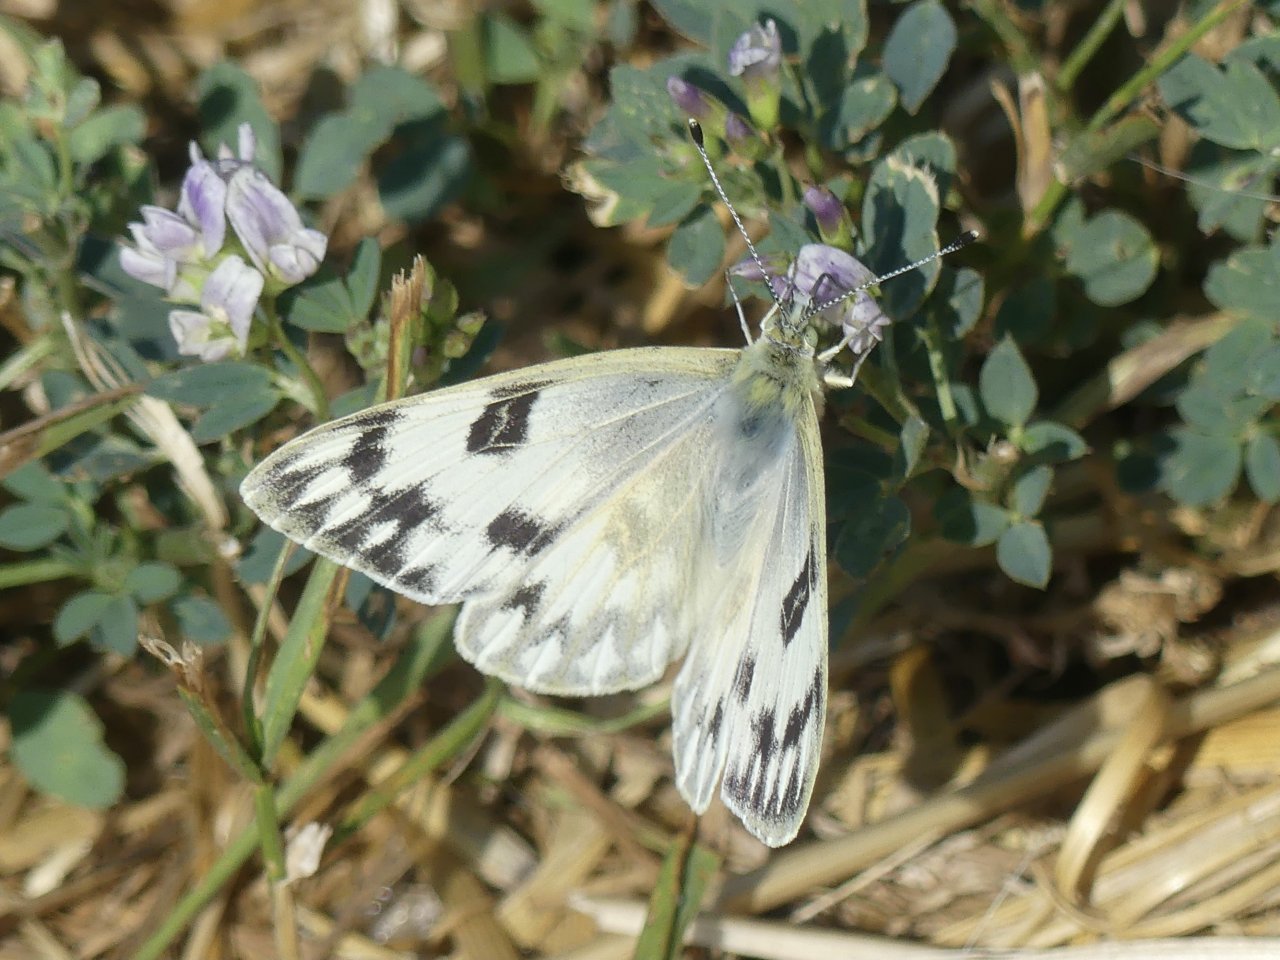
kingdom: Animalia
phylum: Arthropoda
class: Insecta
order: Lepidoptera
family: Pieridae
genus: Pontia
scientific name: Pontia occidentalis
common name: Western White
